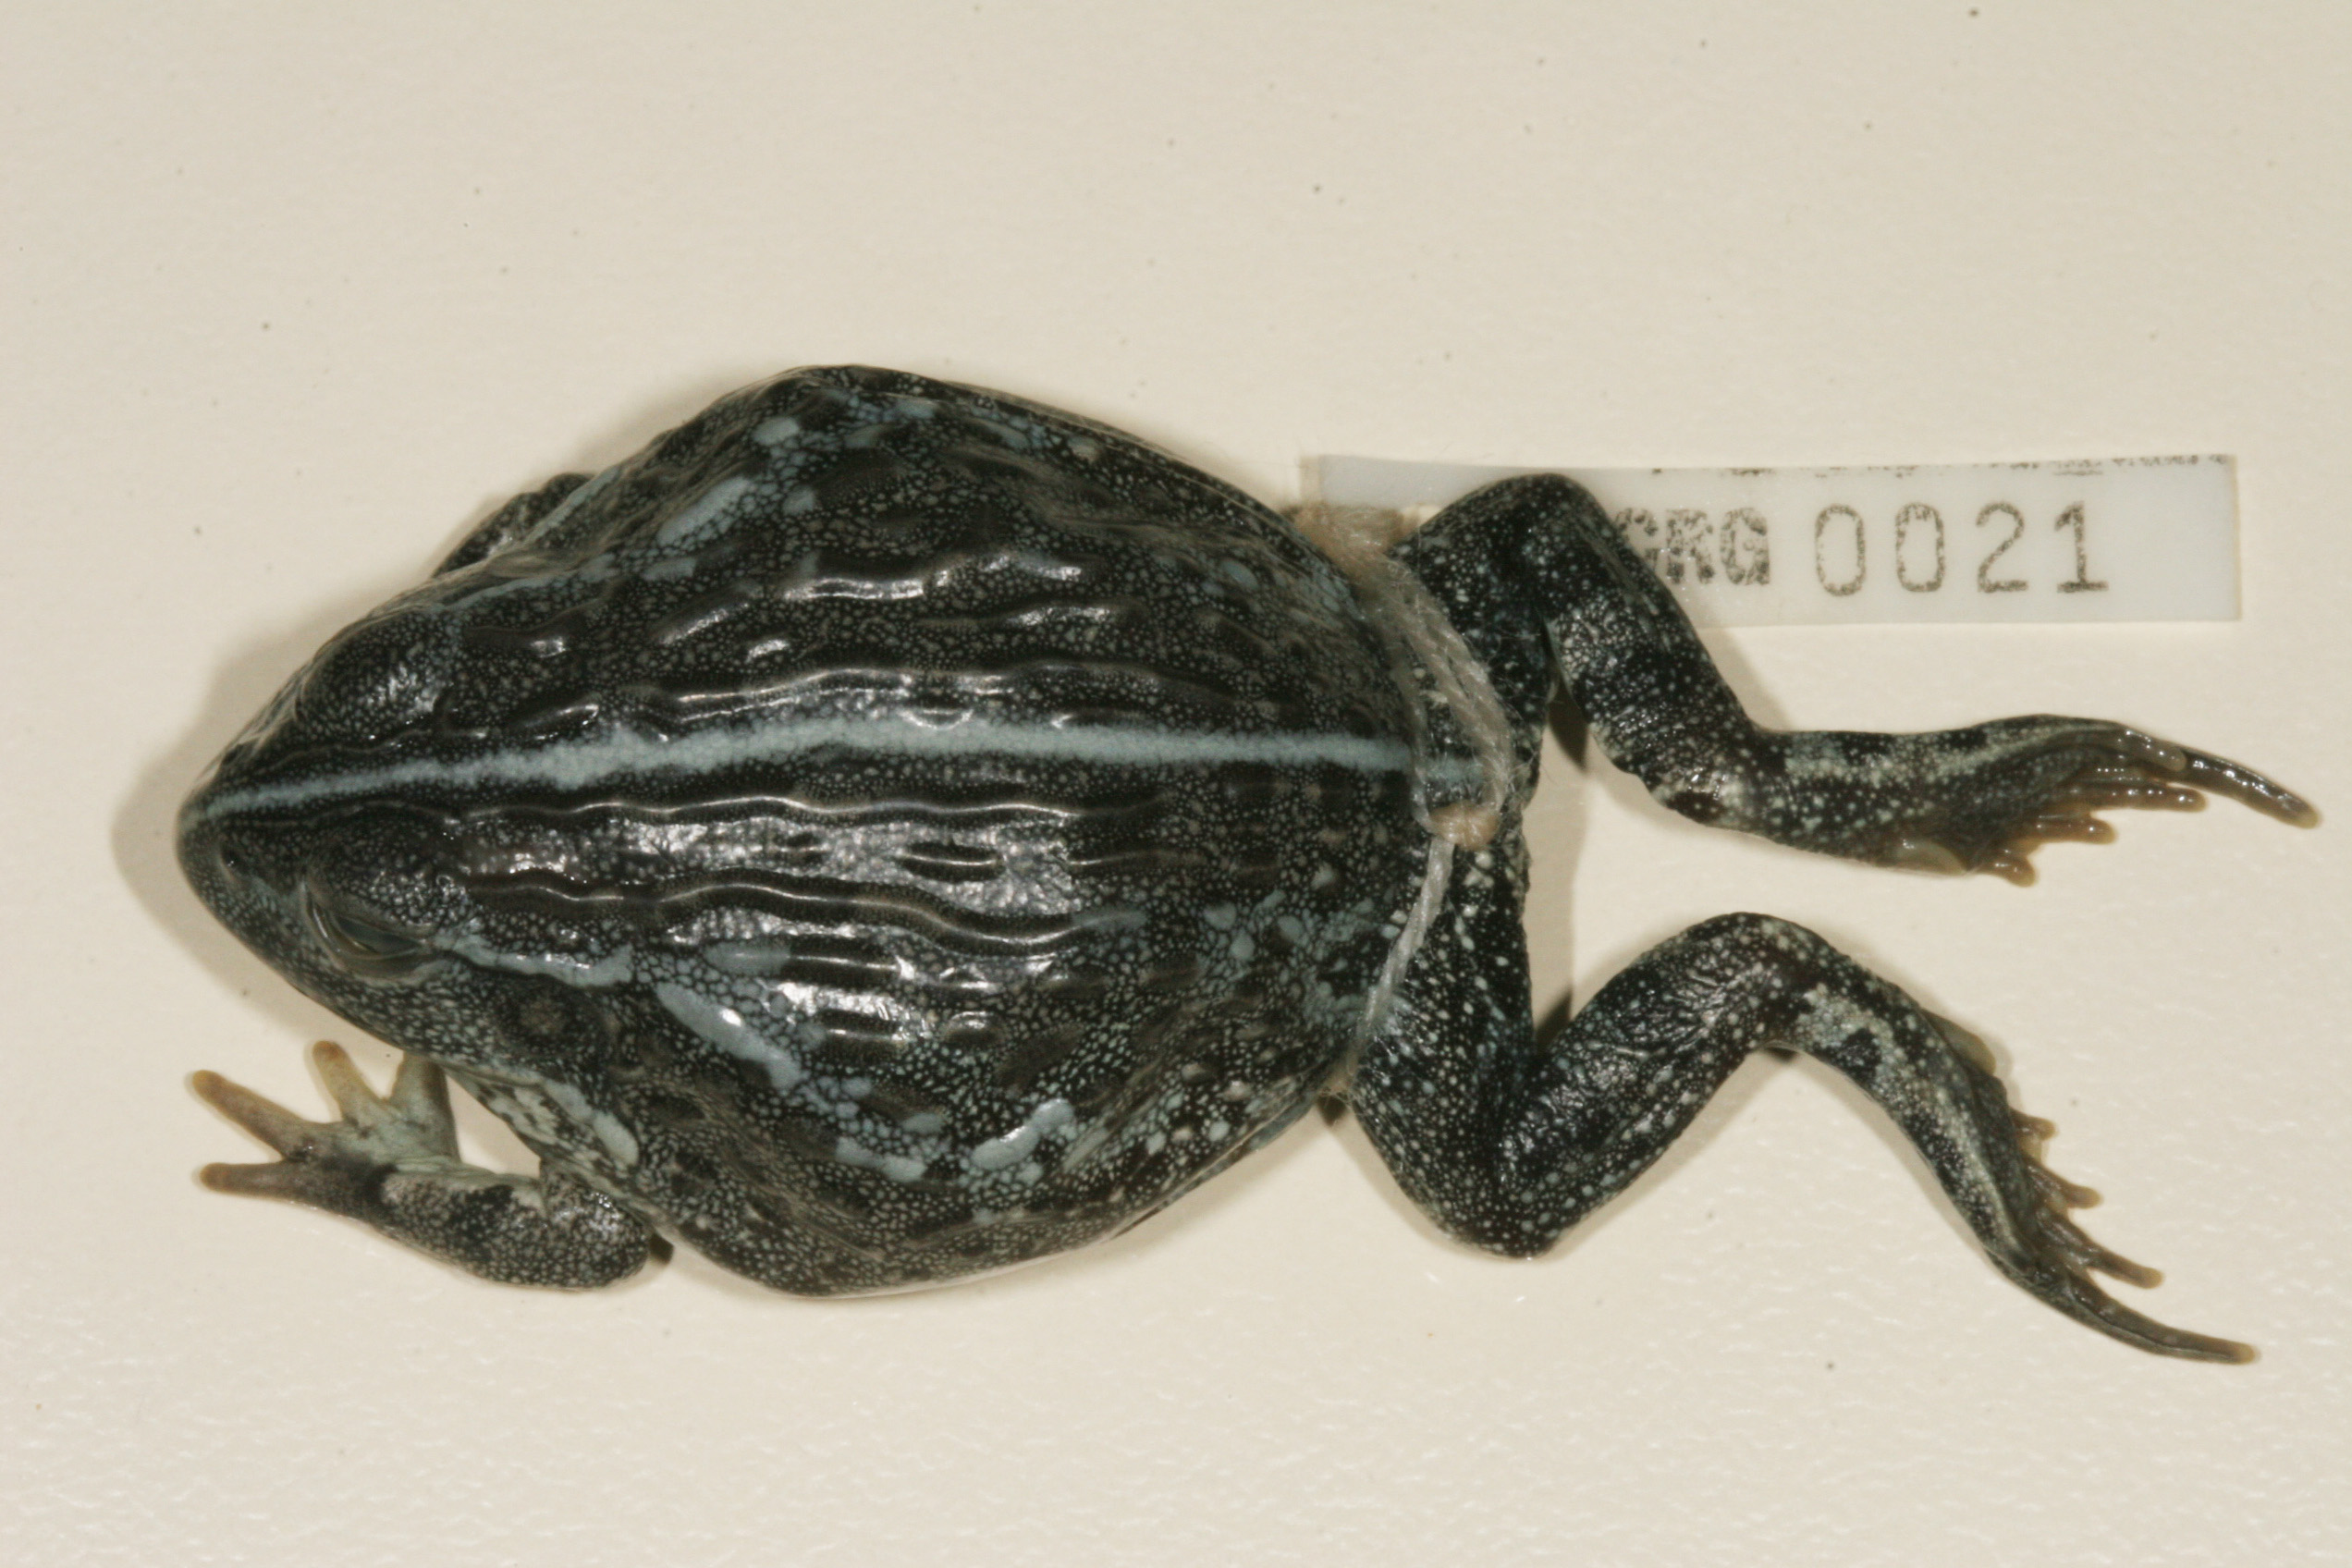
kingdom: Animalia
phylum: Chordata
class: Amphibia
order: Anura
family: Pyxicephalidae
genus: Pyxicephalus
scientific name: Pyxicephalus adspersus
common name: African bullfrog
